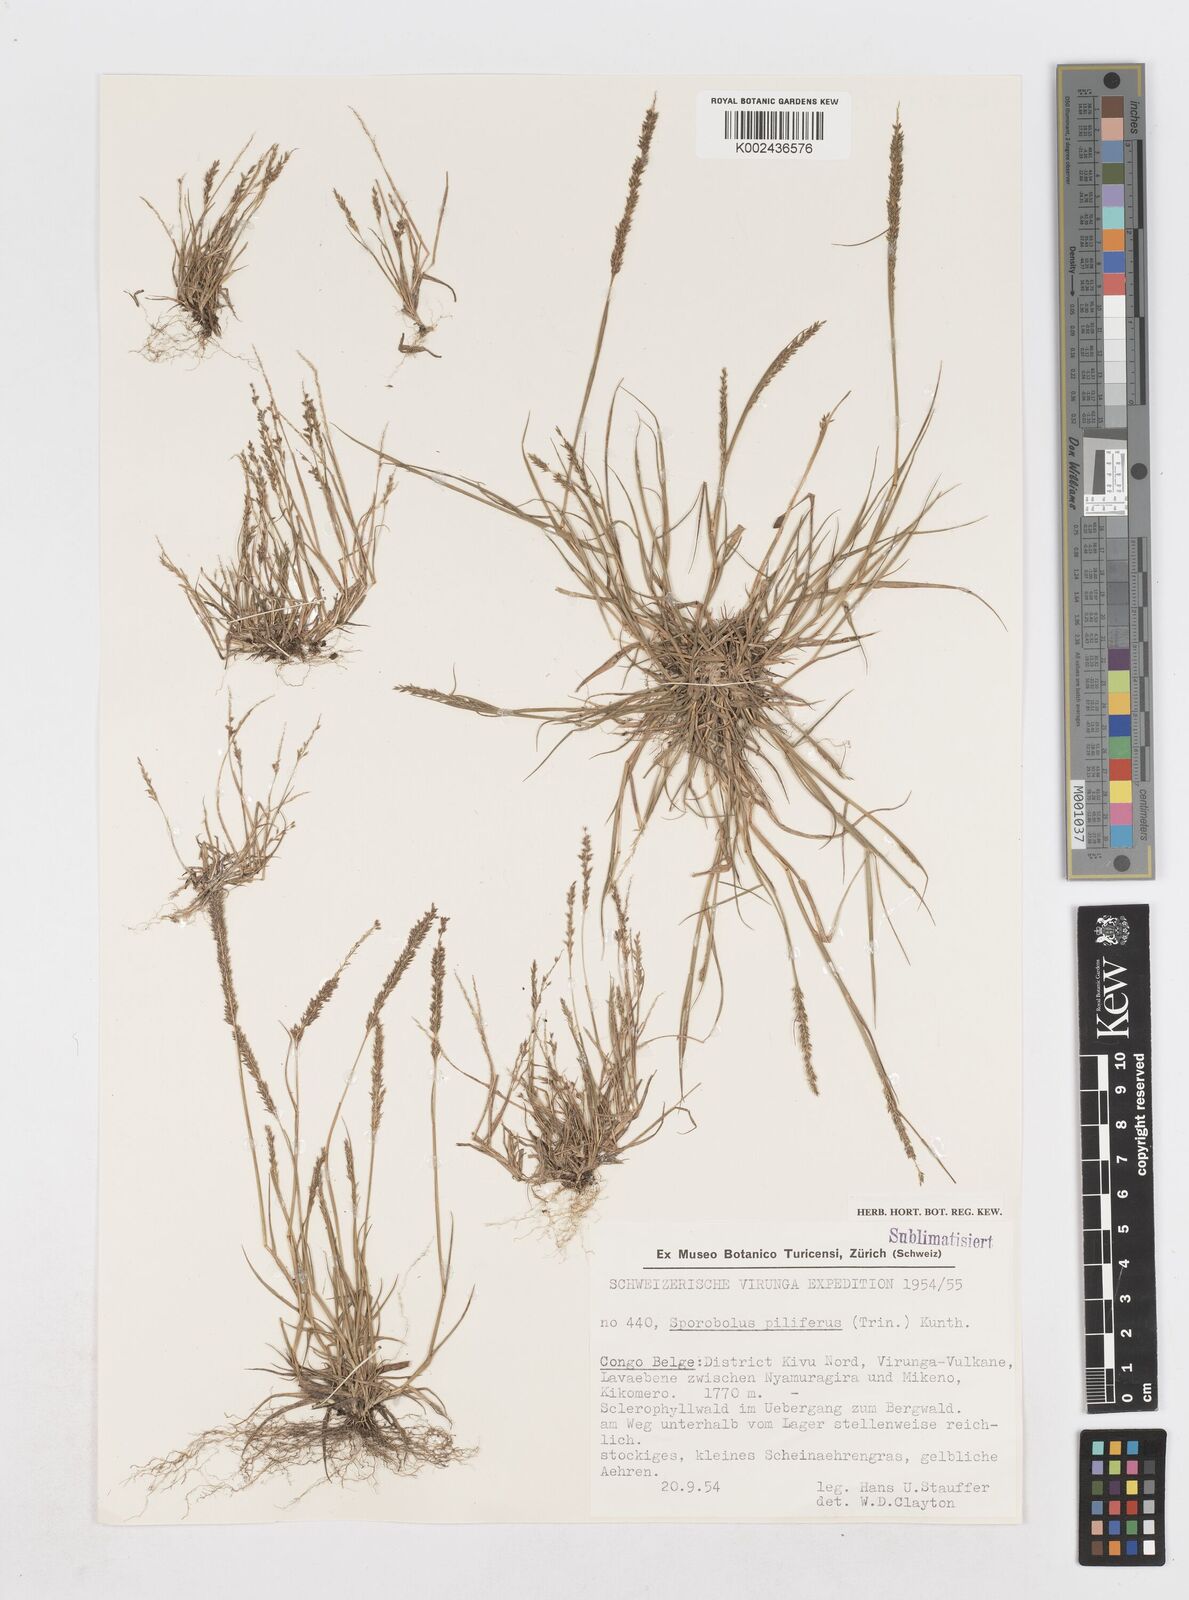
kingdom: Plantae
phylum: Tracheophyta
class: Liliopsida
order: Poales
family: Poaceae
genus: Sporobolus
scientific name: Sporobolus pilifer
